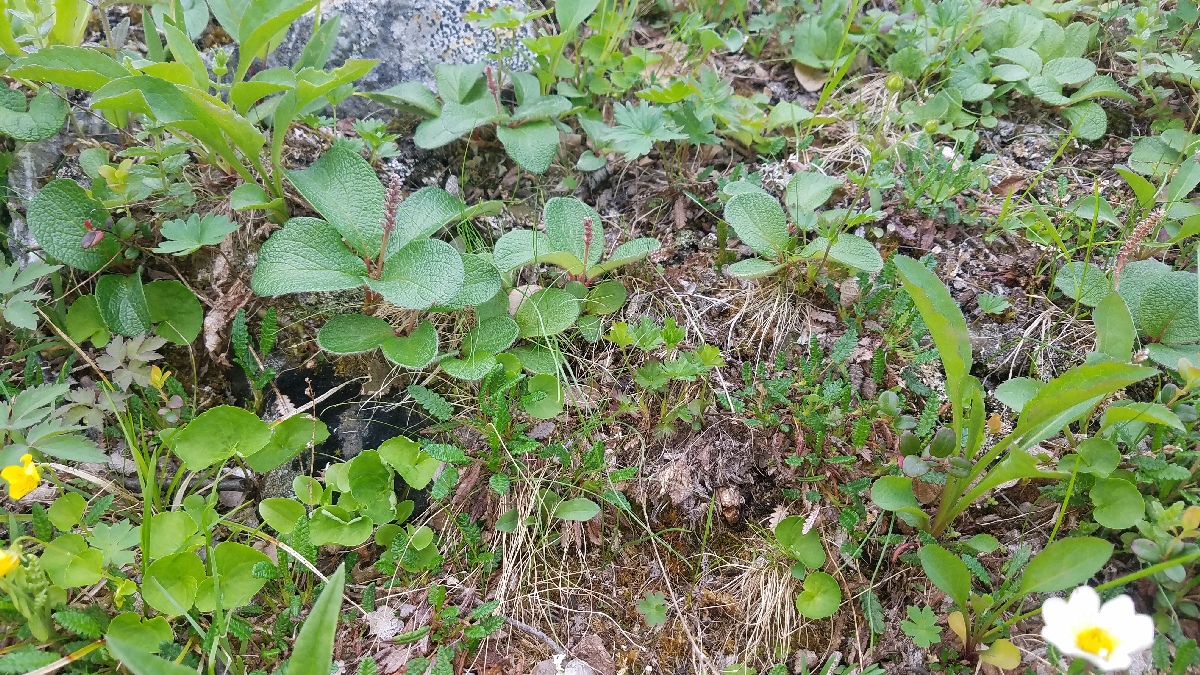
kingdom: Plantae
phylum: Tracheophyta
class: Magnoliopsida
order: Malpighiales
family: Salicaceae
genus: Salix
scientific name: Salix reticulata
